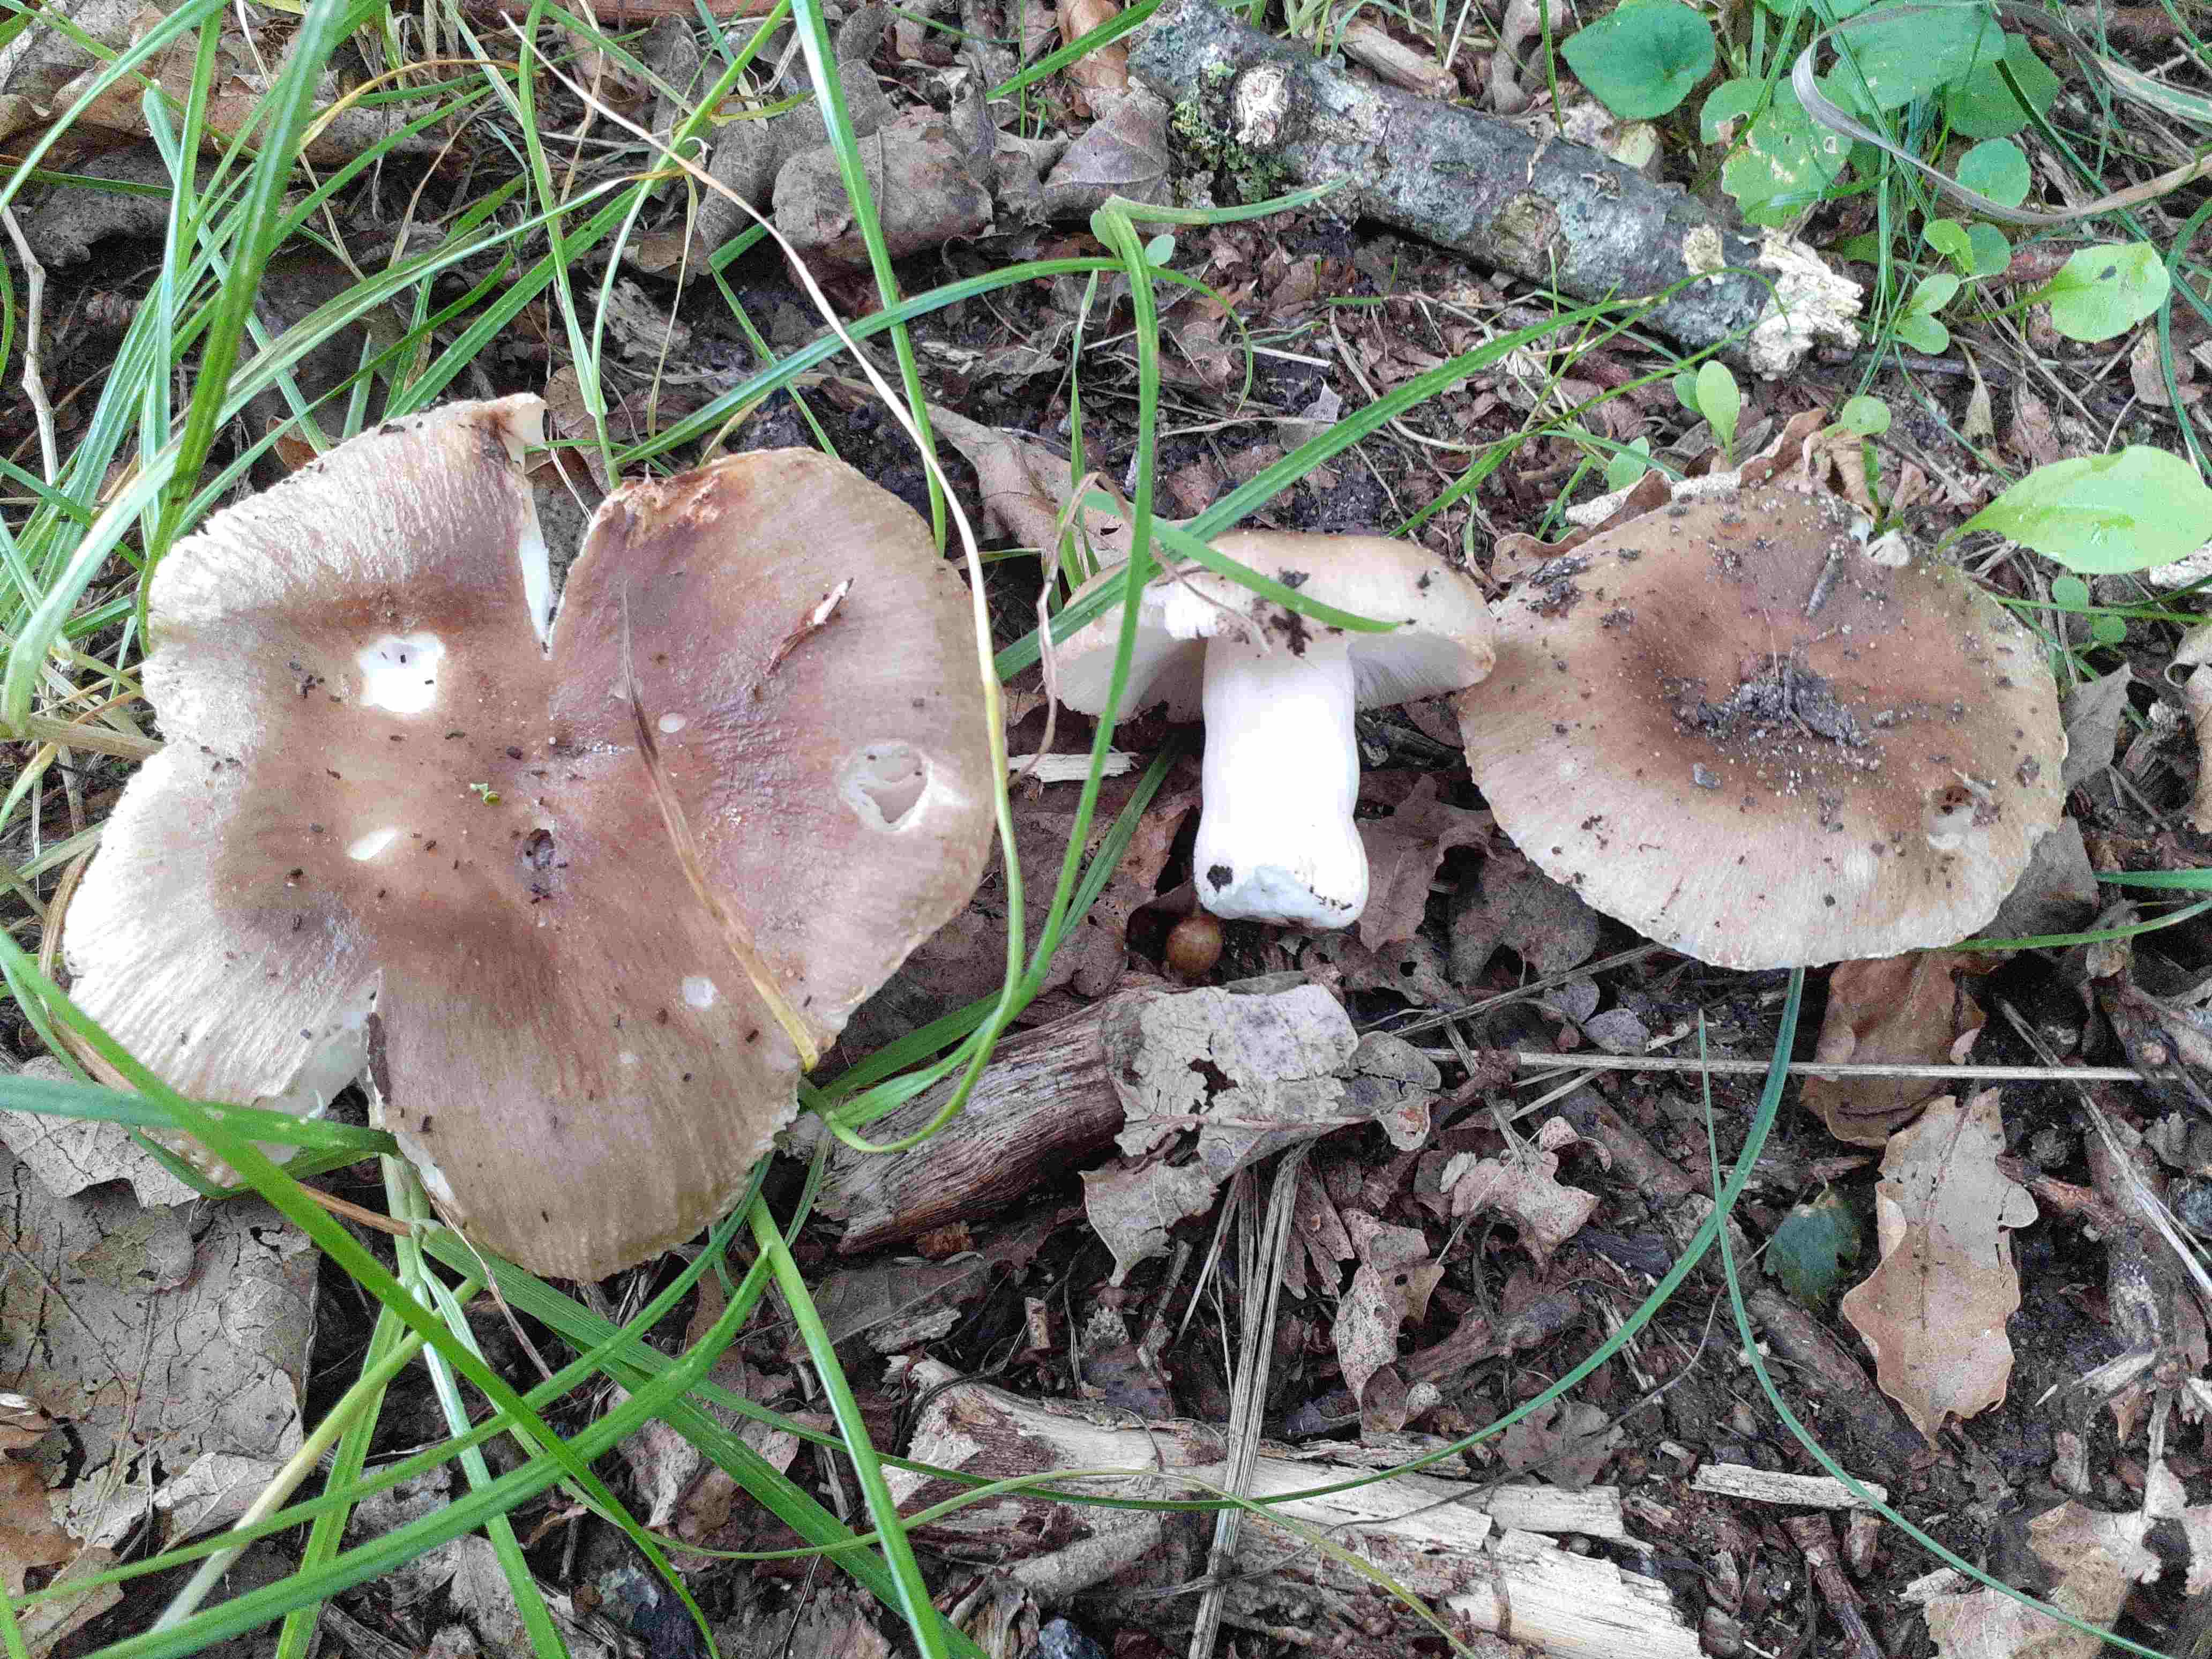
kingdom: Fungi
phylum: Basidiomycota
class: Agaricomycetes
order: Russulales
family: Russulaceae
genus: Russula
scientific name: Russula recondita
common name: mild kam-skørhat
